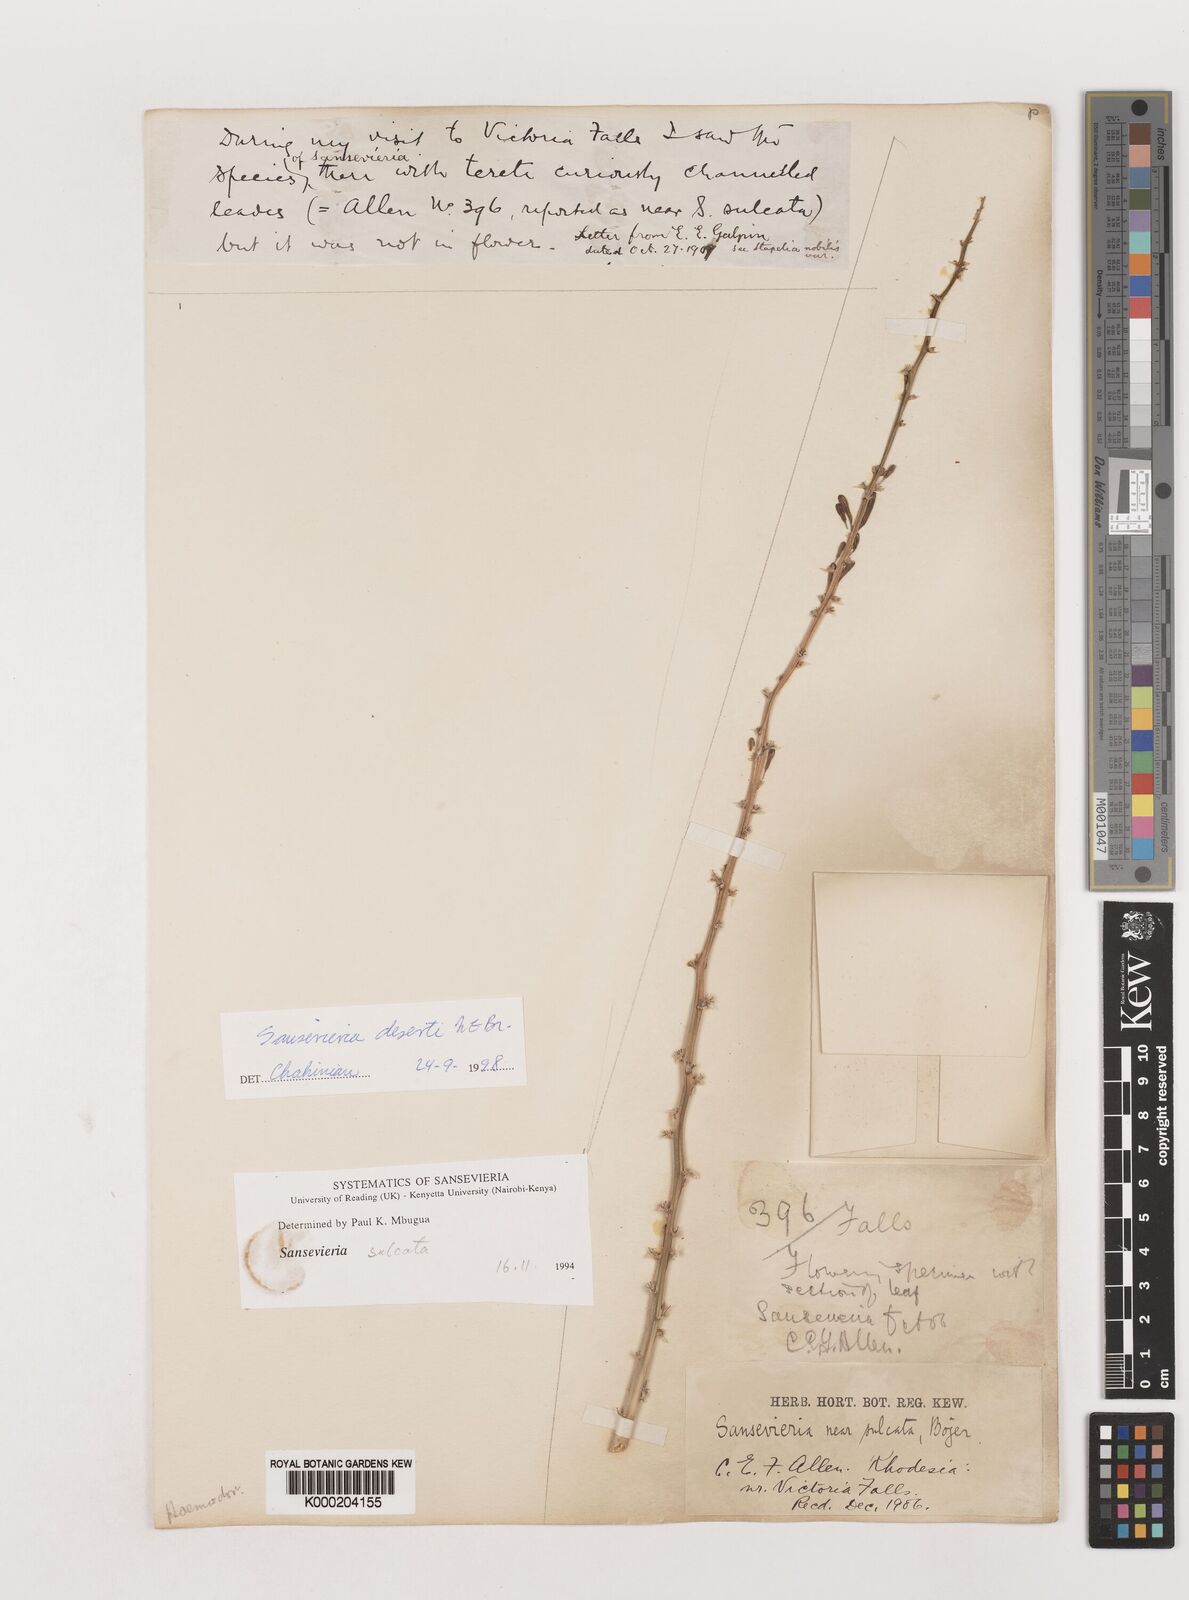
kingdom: Plantae
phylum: Tracheophyta
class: Liliopsida
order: Asparagales
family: Asparagaceae
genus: Dracaena
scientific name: Dracaena pearsonii
